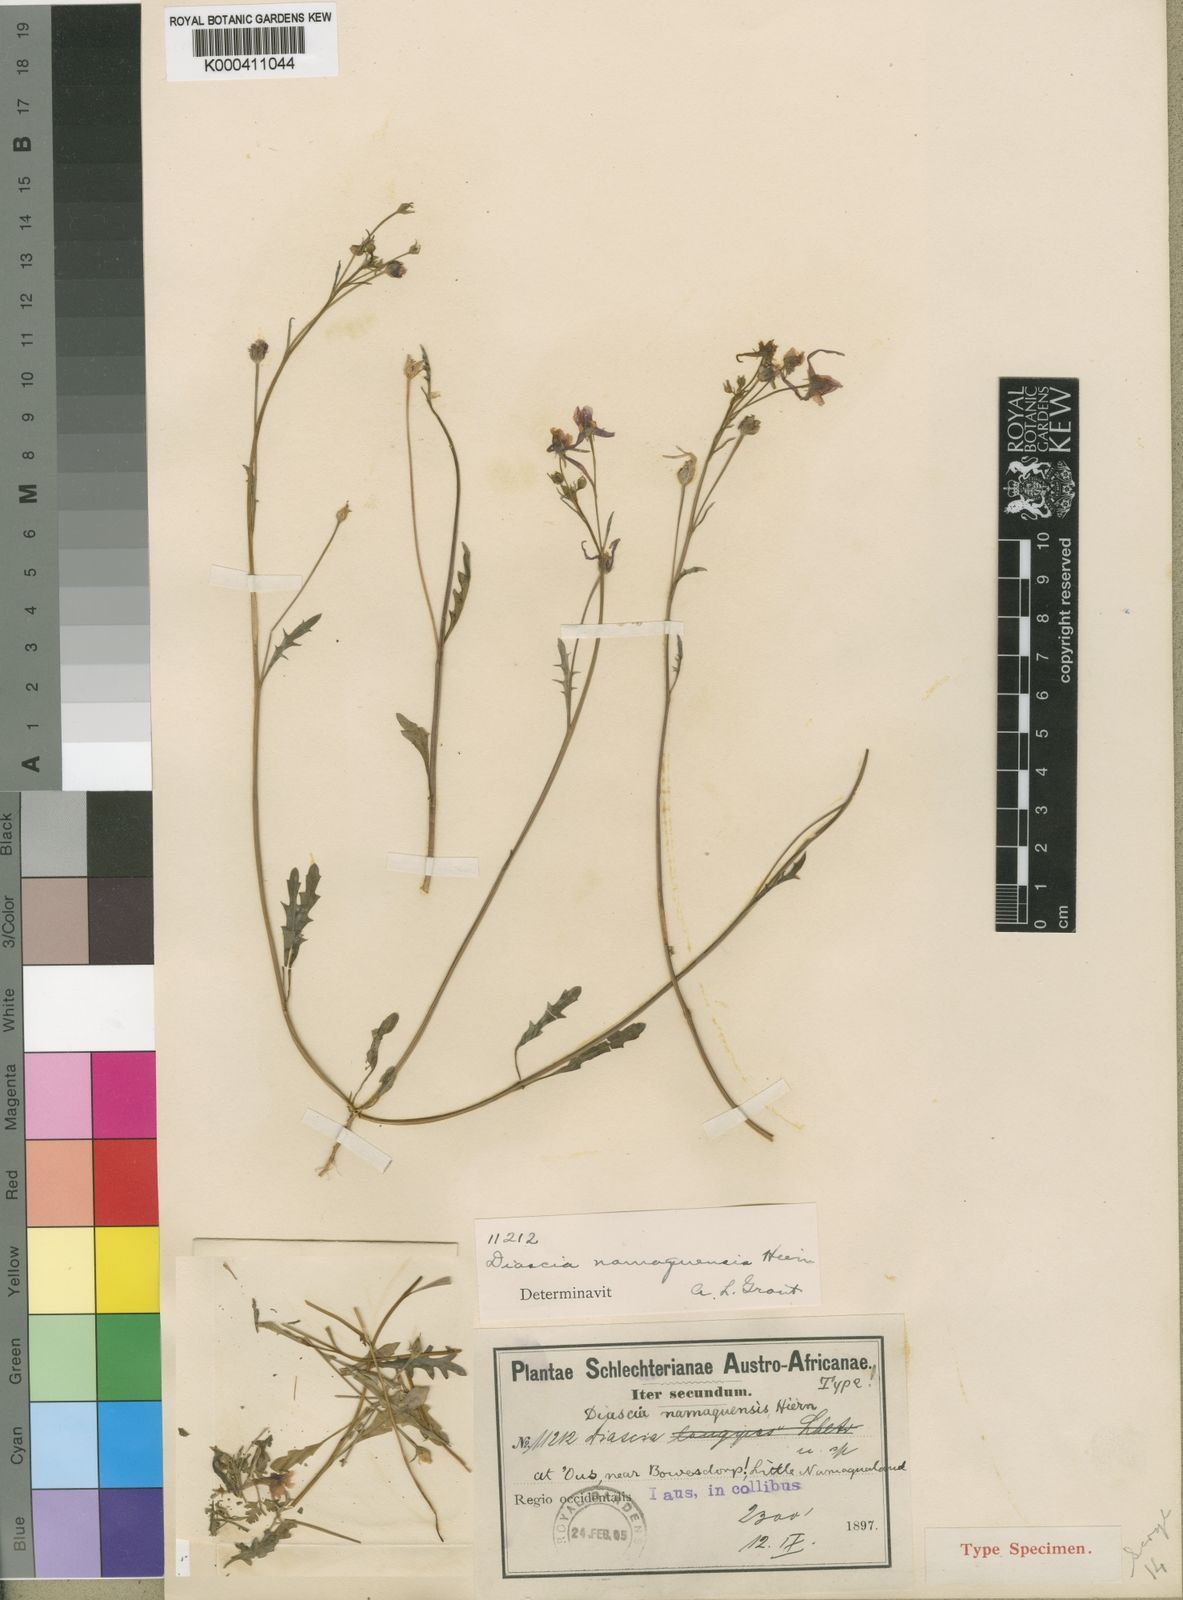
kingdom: Plantae
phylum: Tracheophyta
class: Magnoliopsida
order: Lamiales
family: Scrophulariaceae
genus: Diascia
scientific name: Diascia namaquensis
